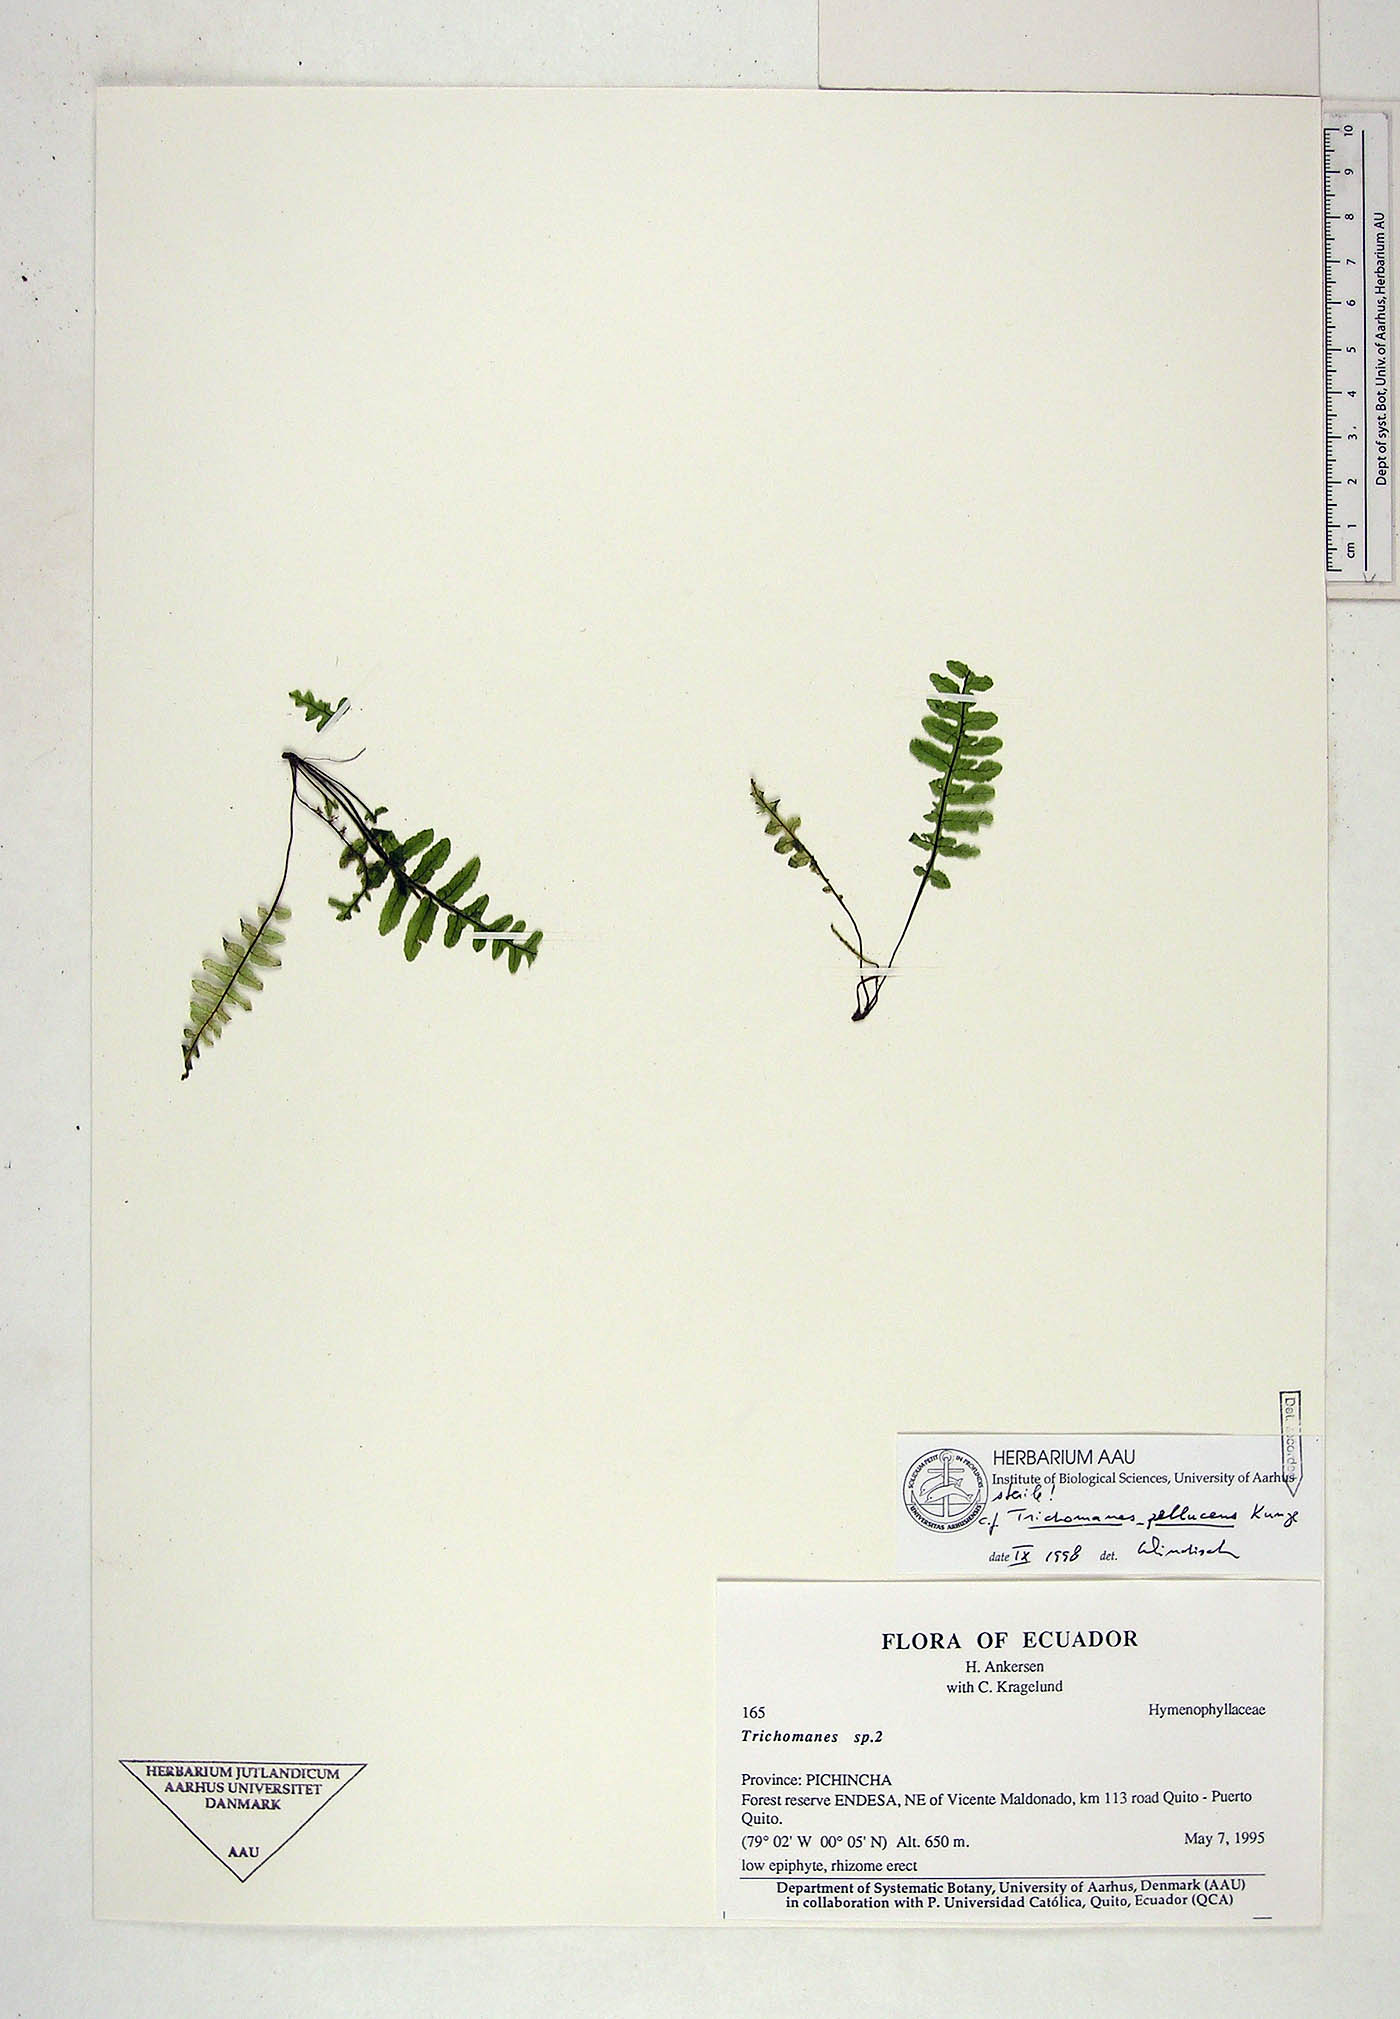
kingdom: Plantae
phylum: Tracheophyta
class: Polypodiopsida
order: Hymenophyllales
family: Hymenophyllaceae
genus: Trichomanes
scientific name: Trichomanes
